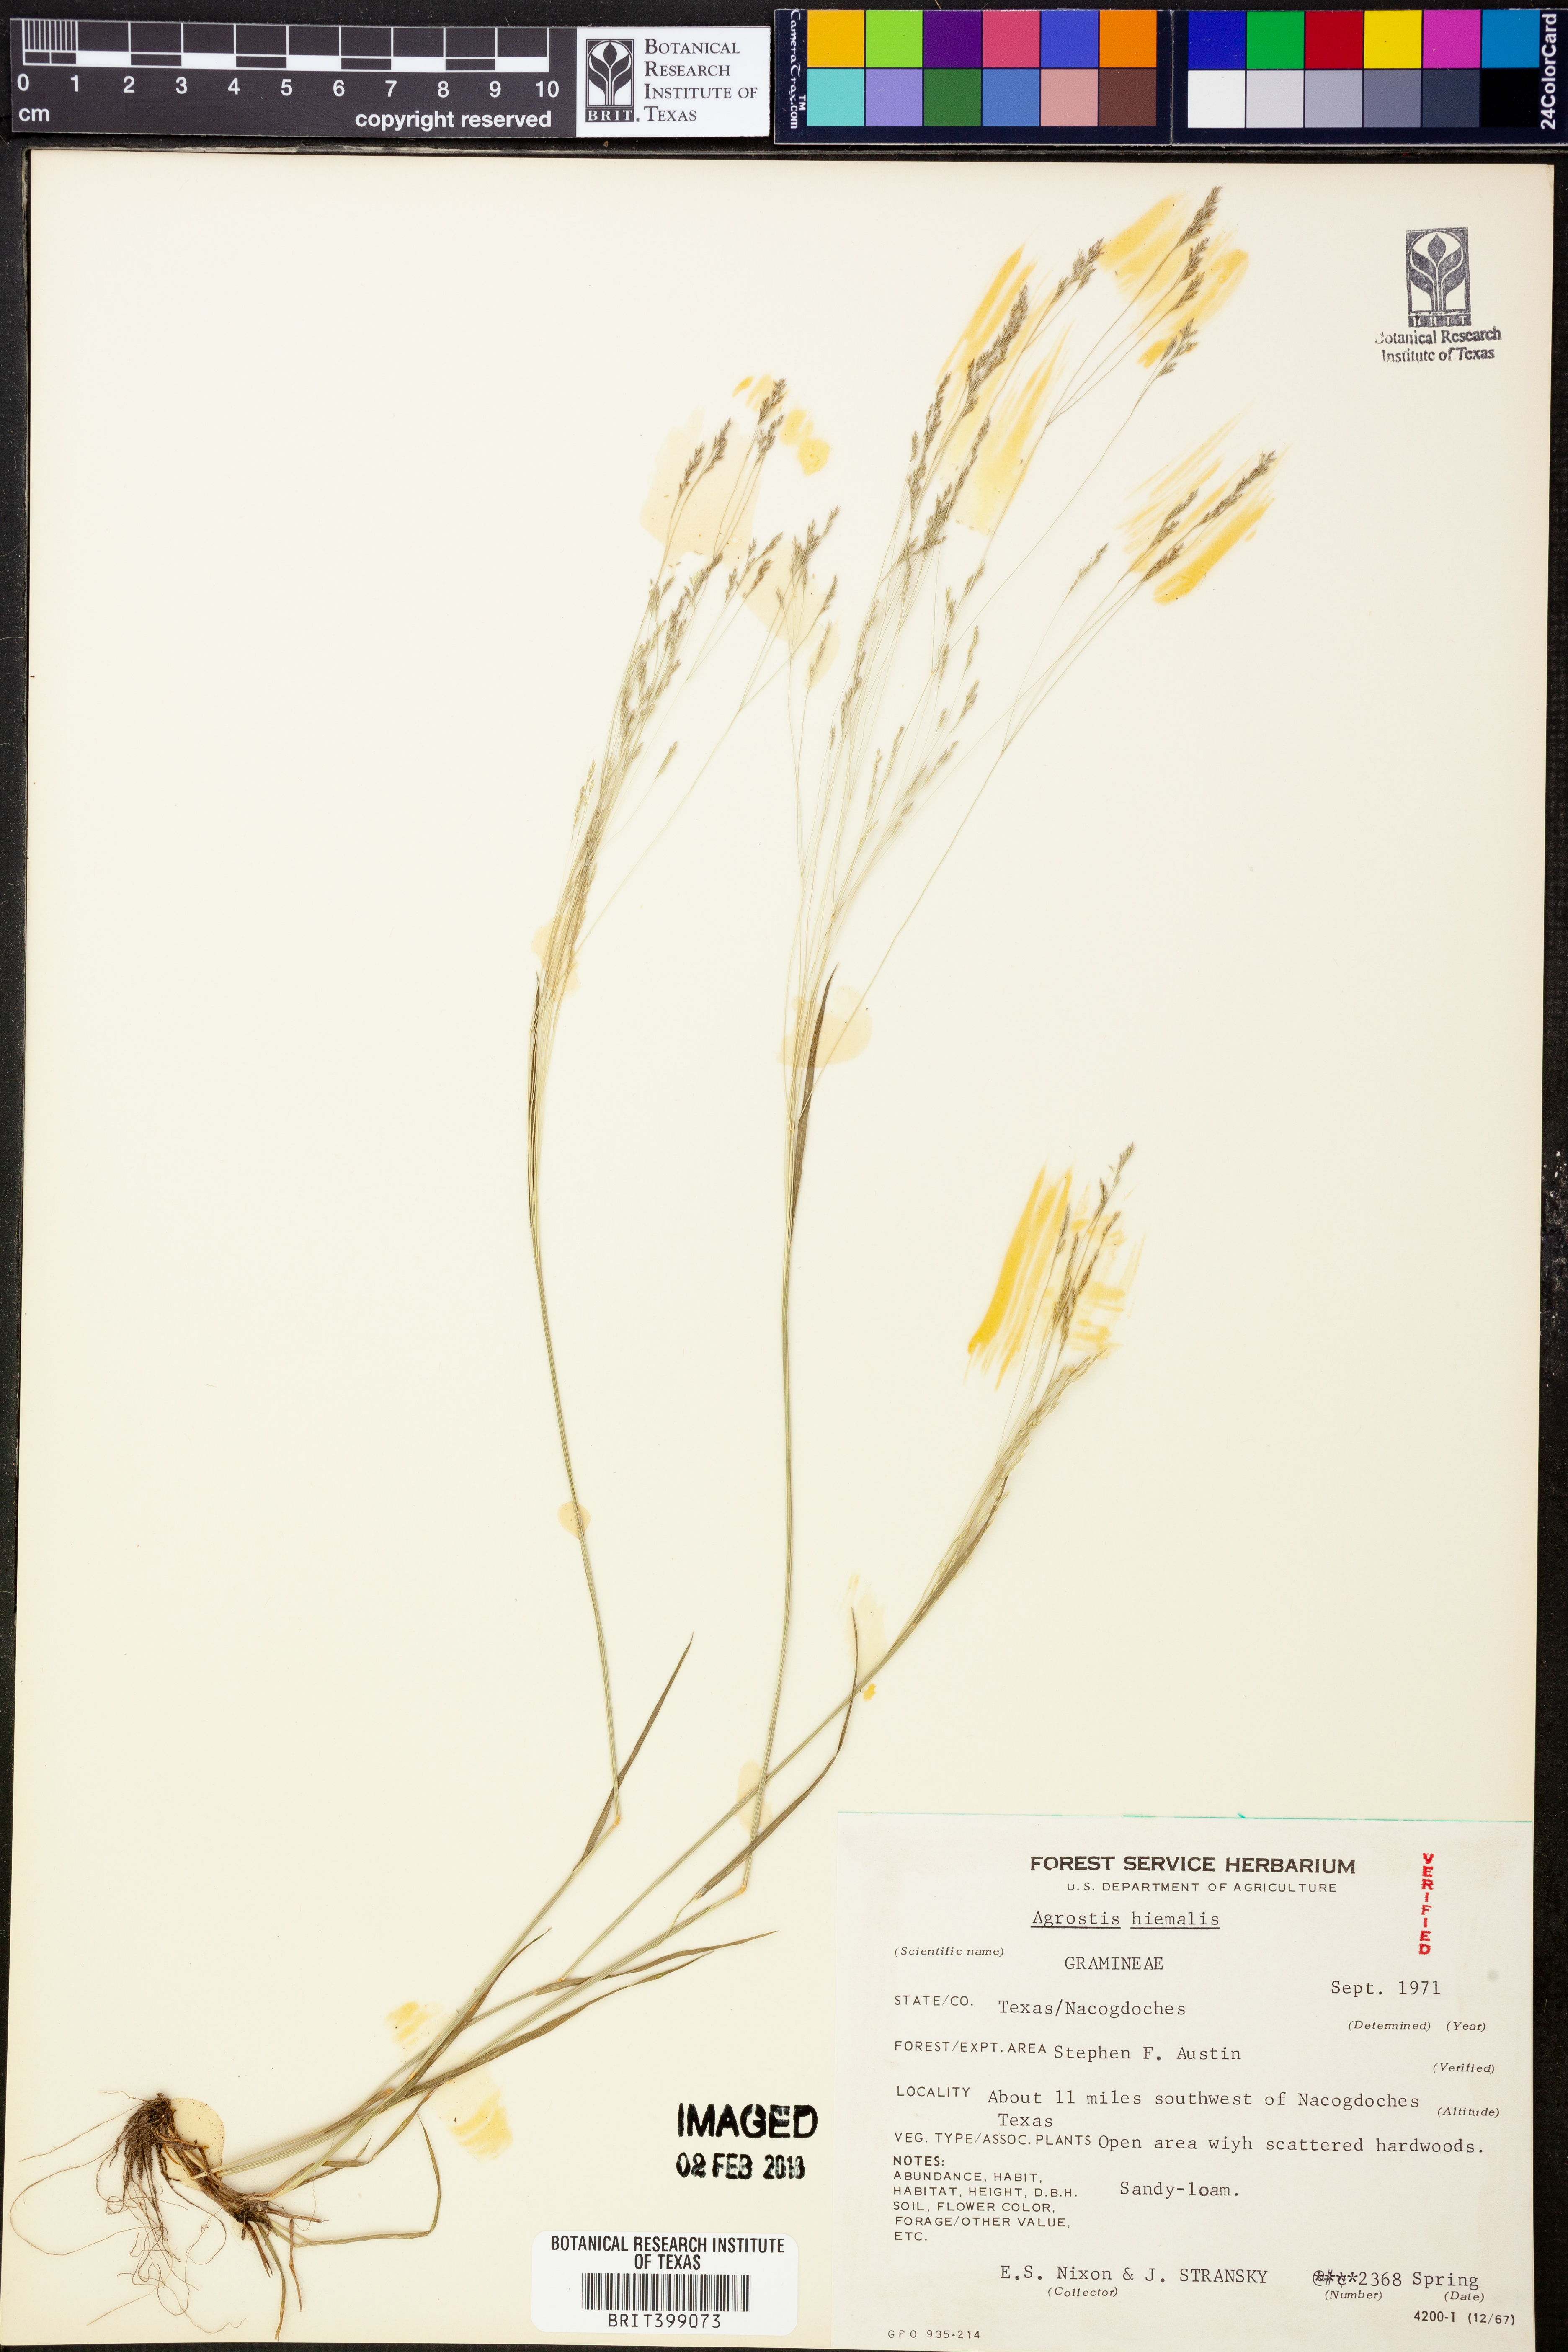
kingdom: Plantae
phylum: Tracheophyta
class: Liliopsida
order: Poales
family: Poaceae
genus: Agrostis
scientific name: Agrostis hyemalis
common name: Small bent
